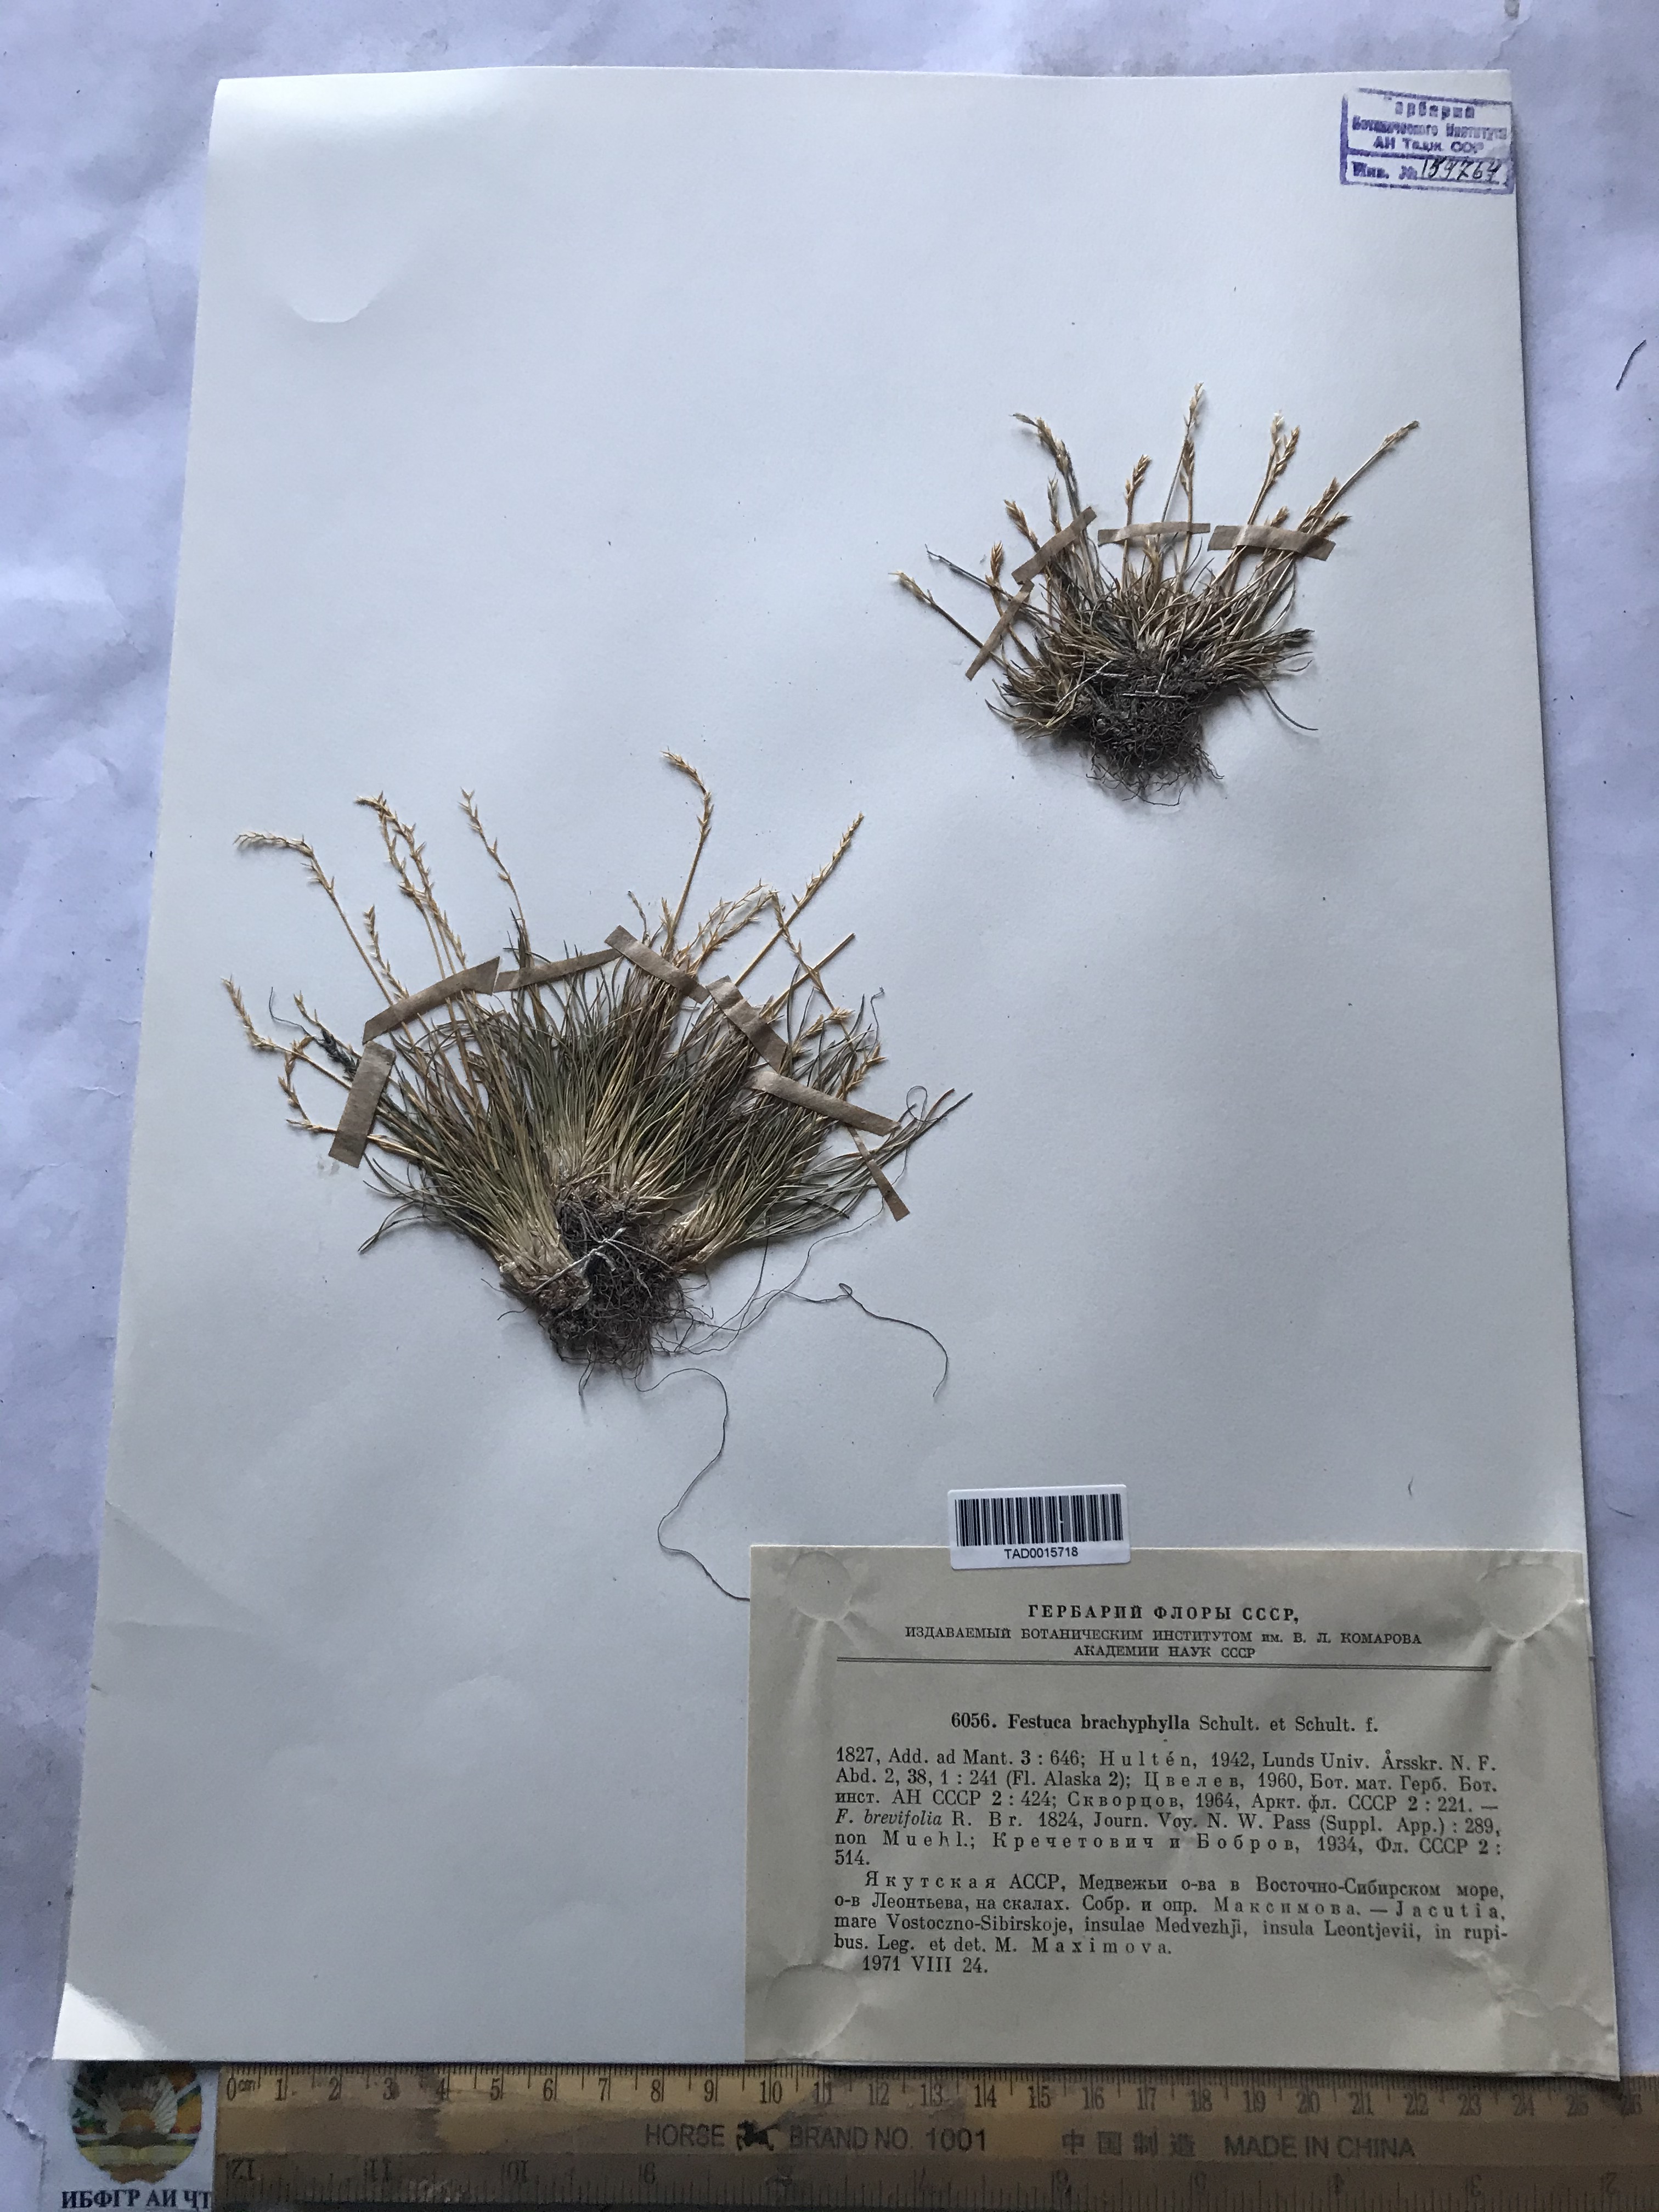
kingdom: Plantae
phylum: Tracheophyta
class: Liliopsida
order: Poales
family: Poaceae
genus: Festuca
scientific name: Festuca brachyphylla
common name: Alpine fescue
